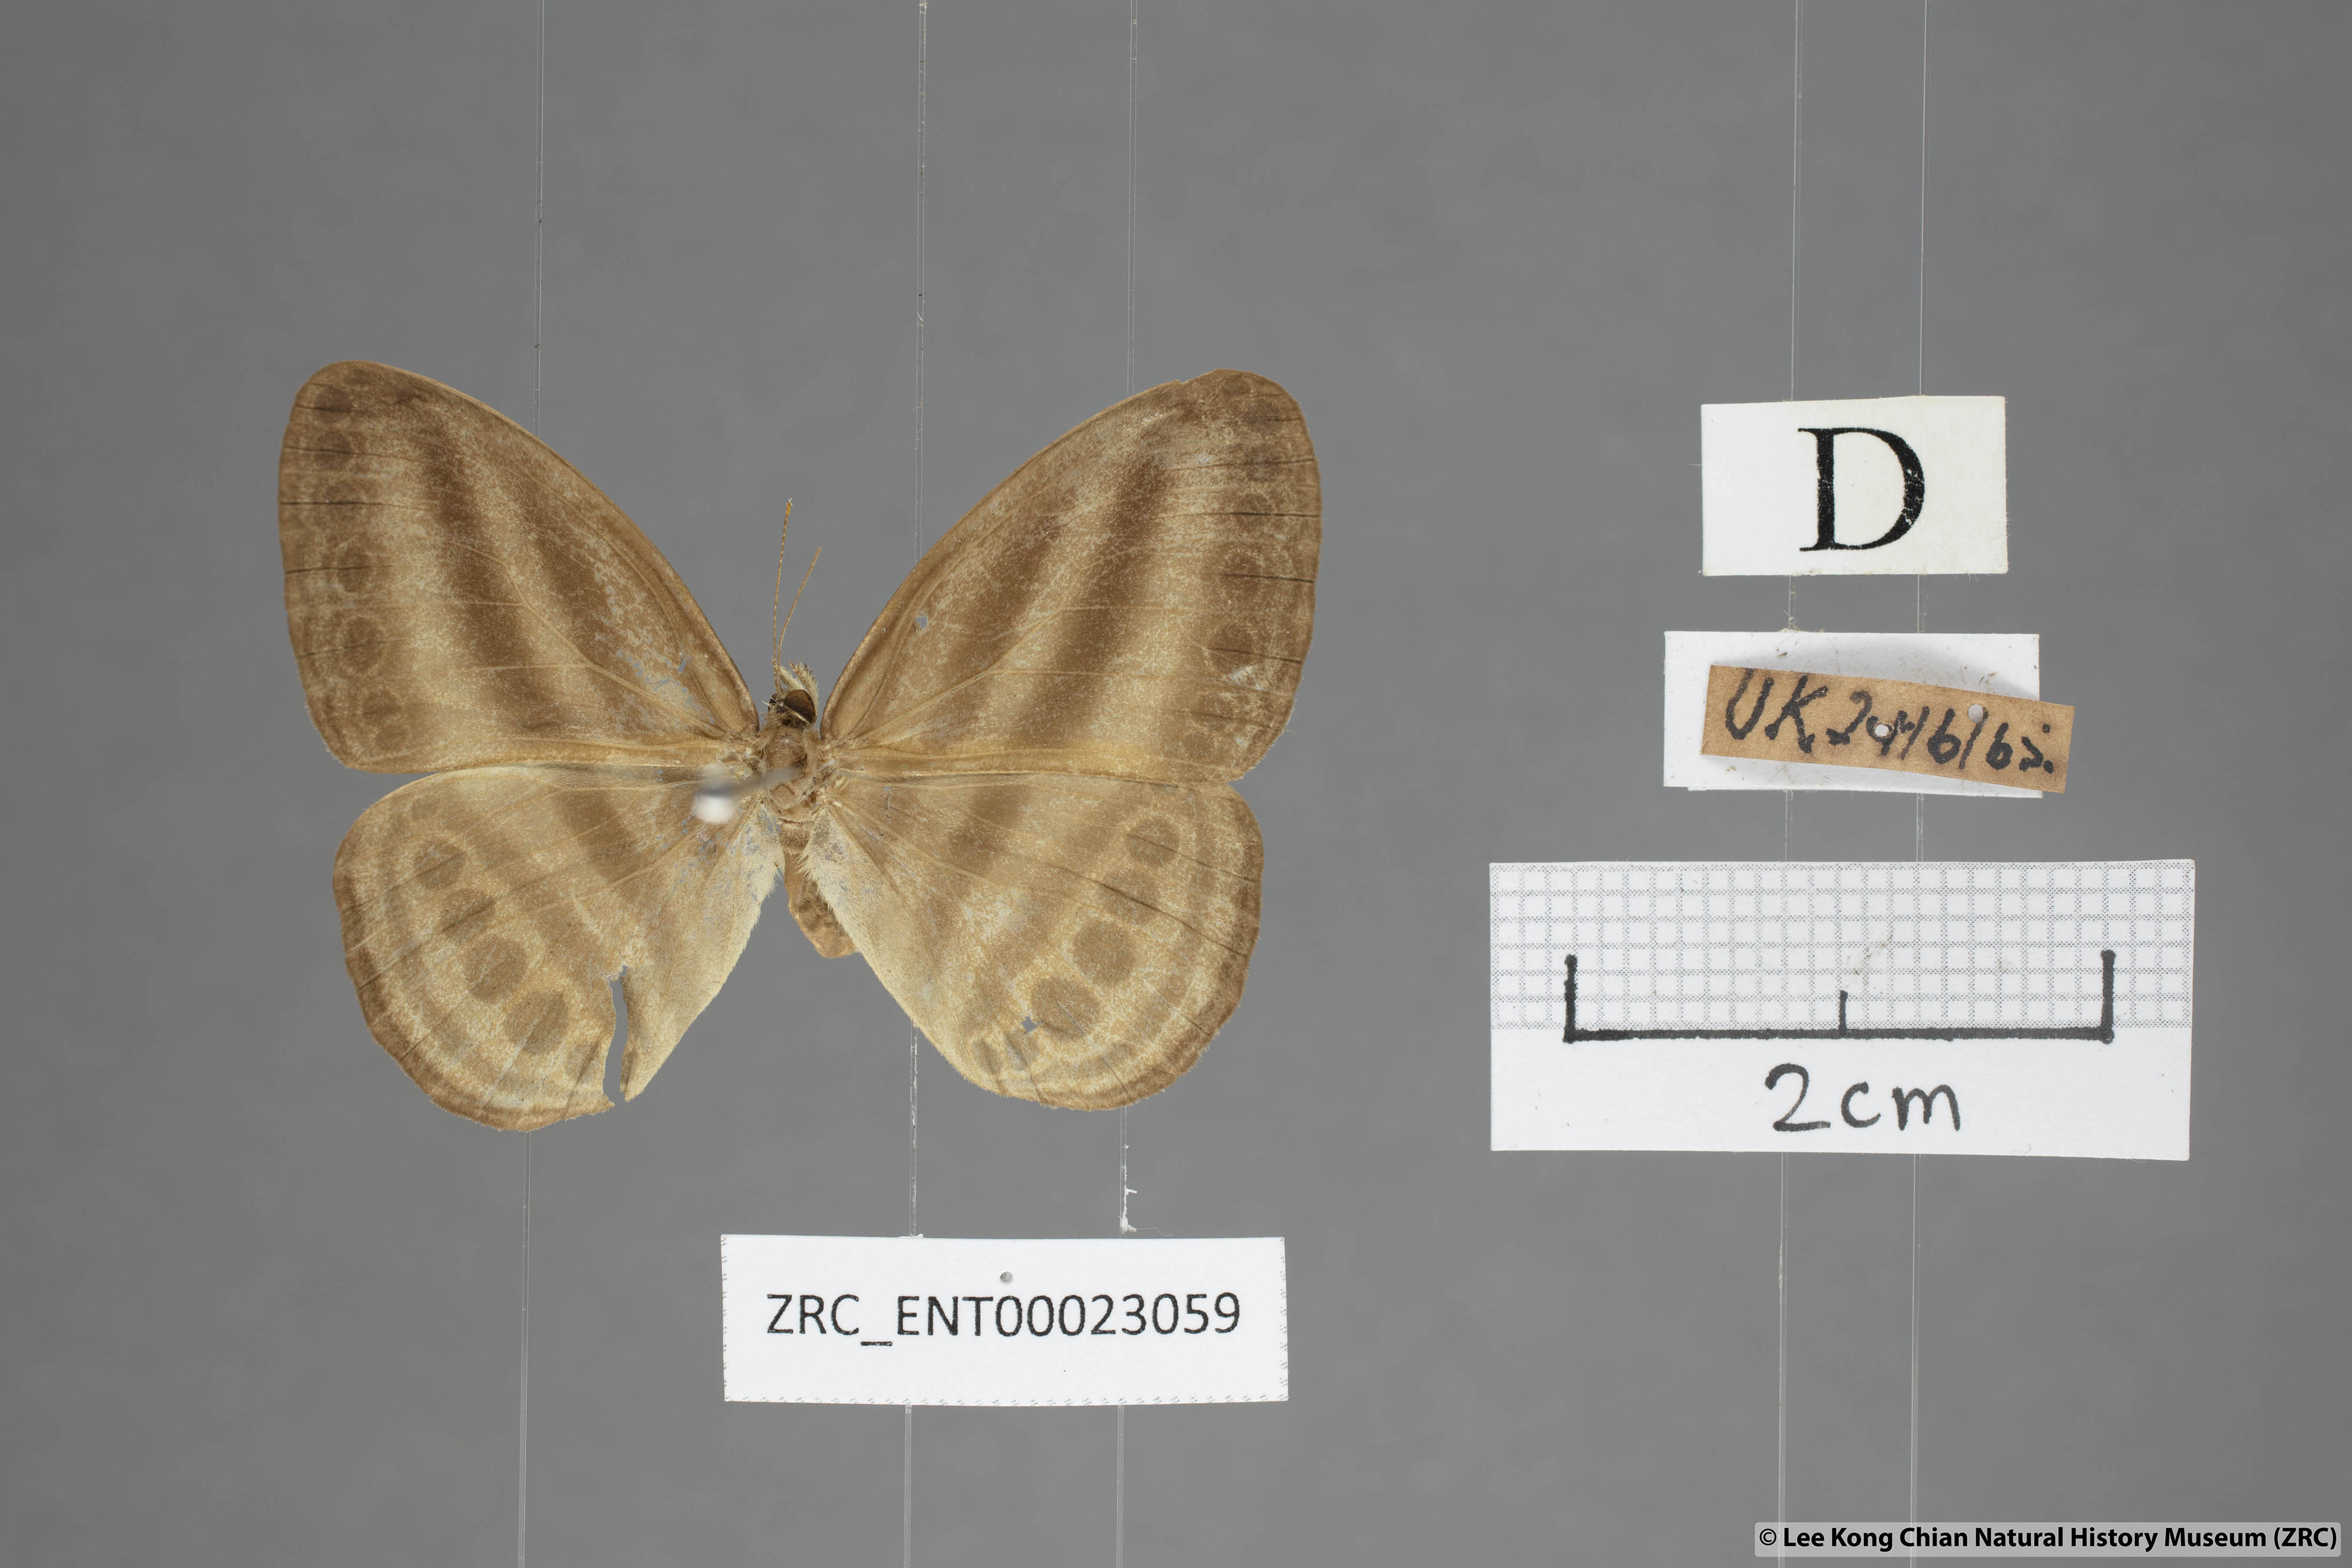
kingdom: Animalia
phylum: Arthropoda
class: Insecta
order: Lepidoptera
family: Nymphalidae
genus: Ragadia
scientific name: Ragadia makata
